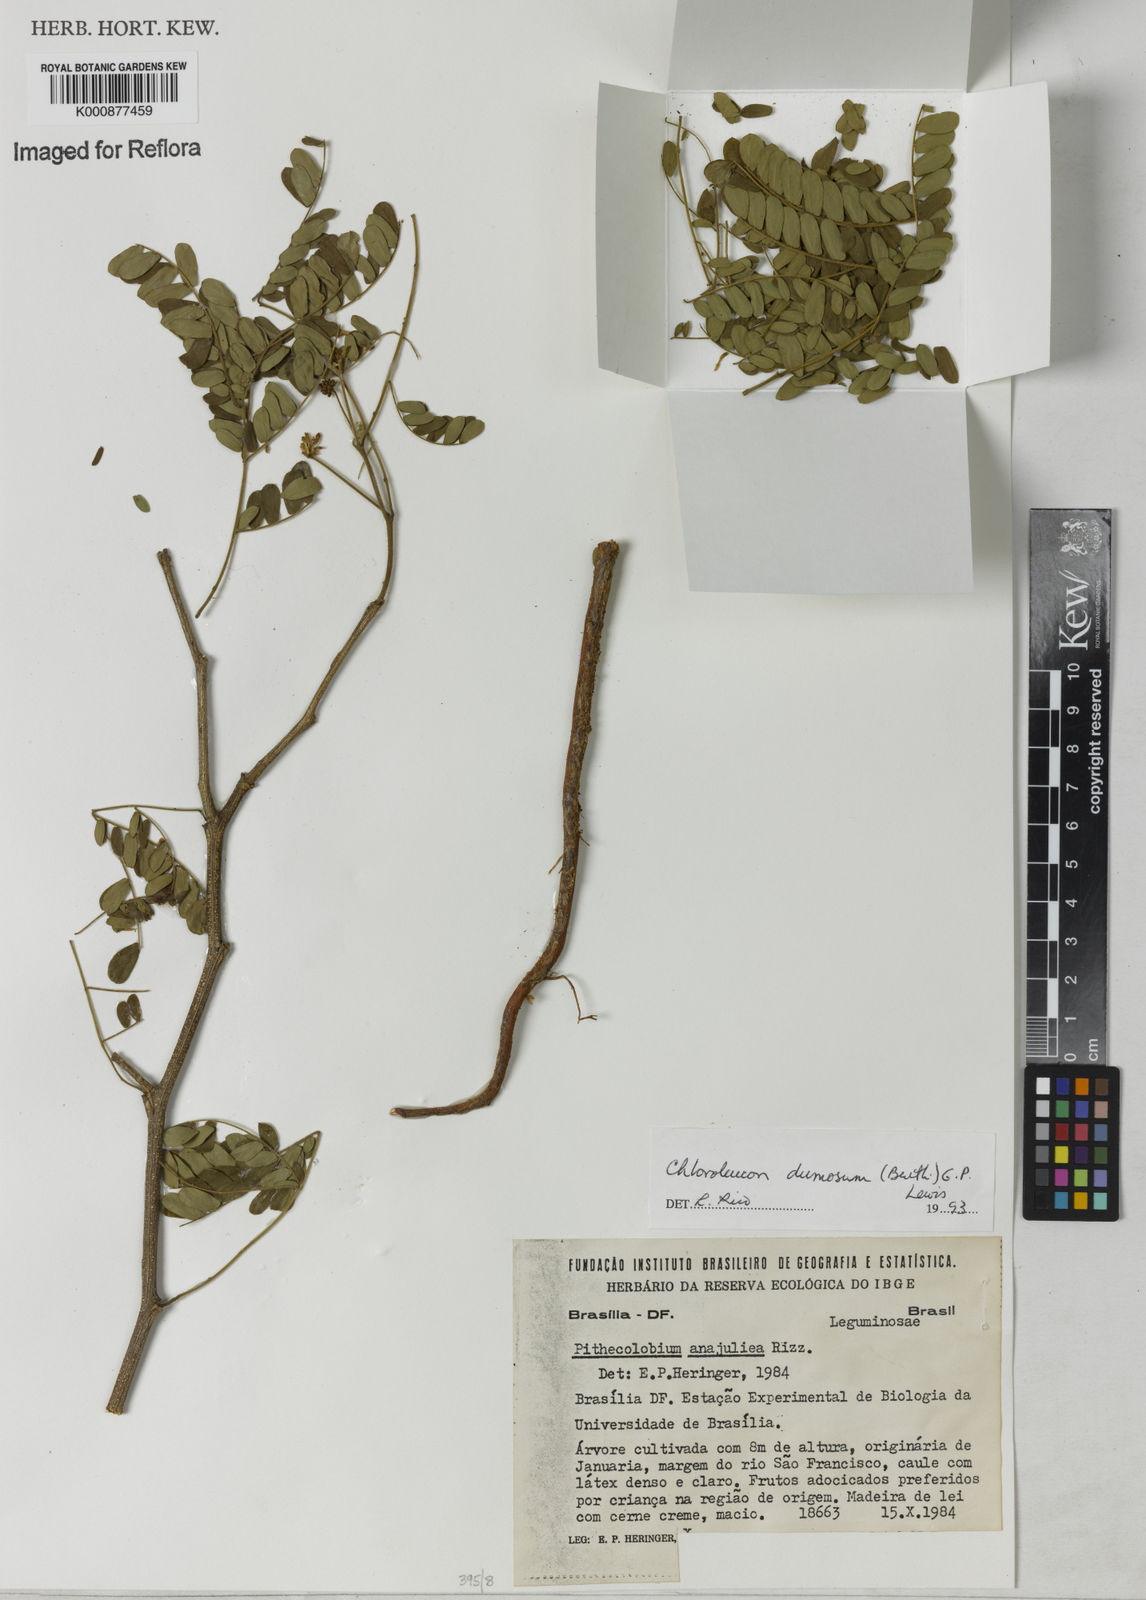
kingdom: Plantae
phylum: Tracheophyta
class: Magnoliopsida
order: Fabales
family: Fabaceae
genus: Chloroleucon
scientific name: Chloroleucon dumosum
